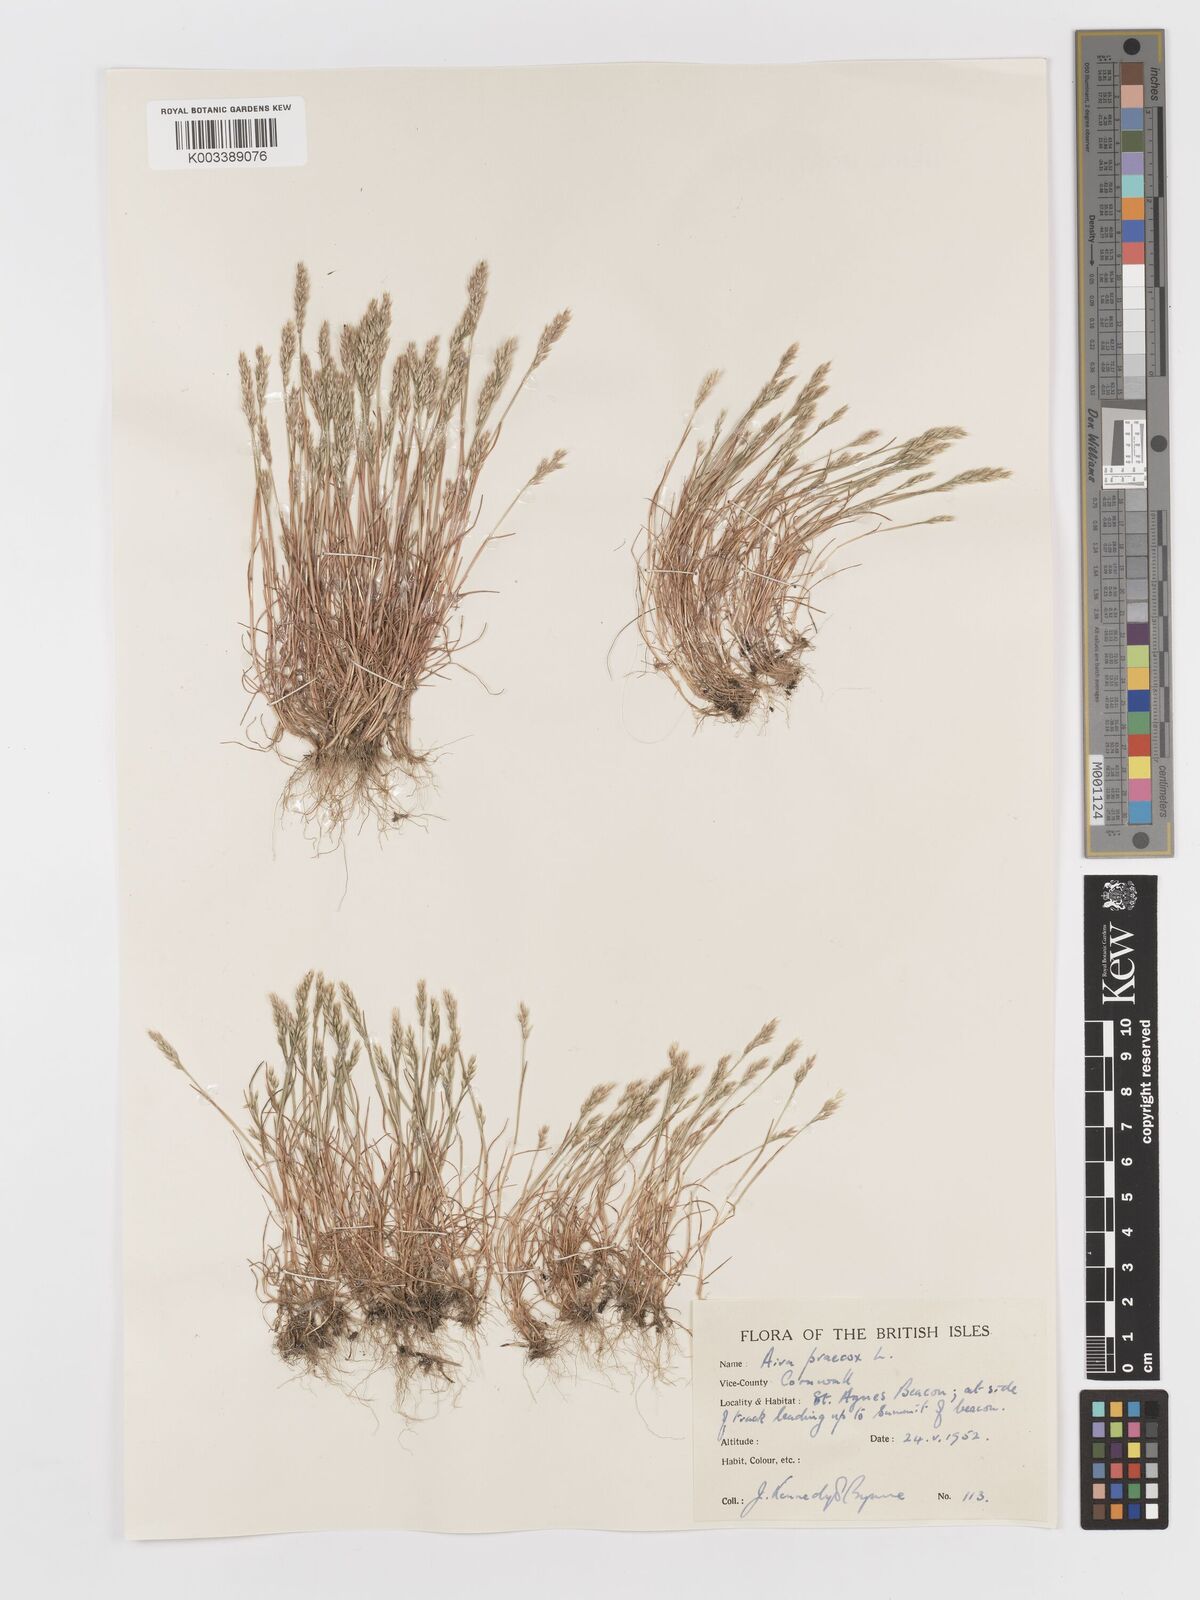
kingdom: Plantae
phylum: Tracheophyta
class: Liliopsida
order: Poales
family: Poaceae
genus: Aira
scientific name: Aira praecox
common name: Early hair-grass
